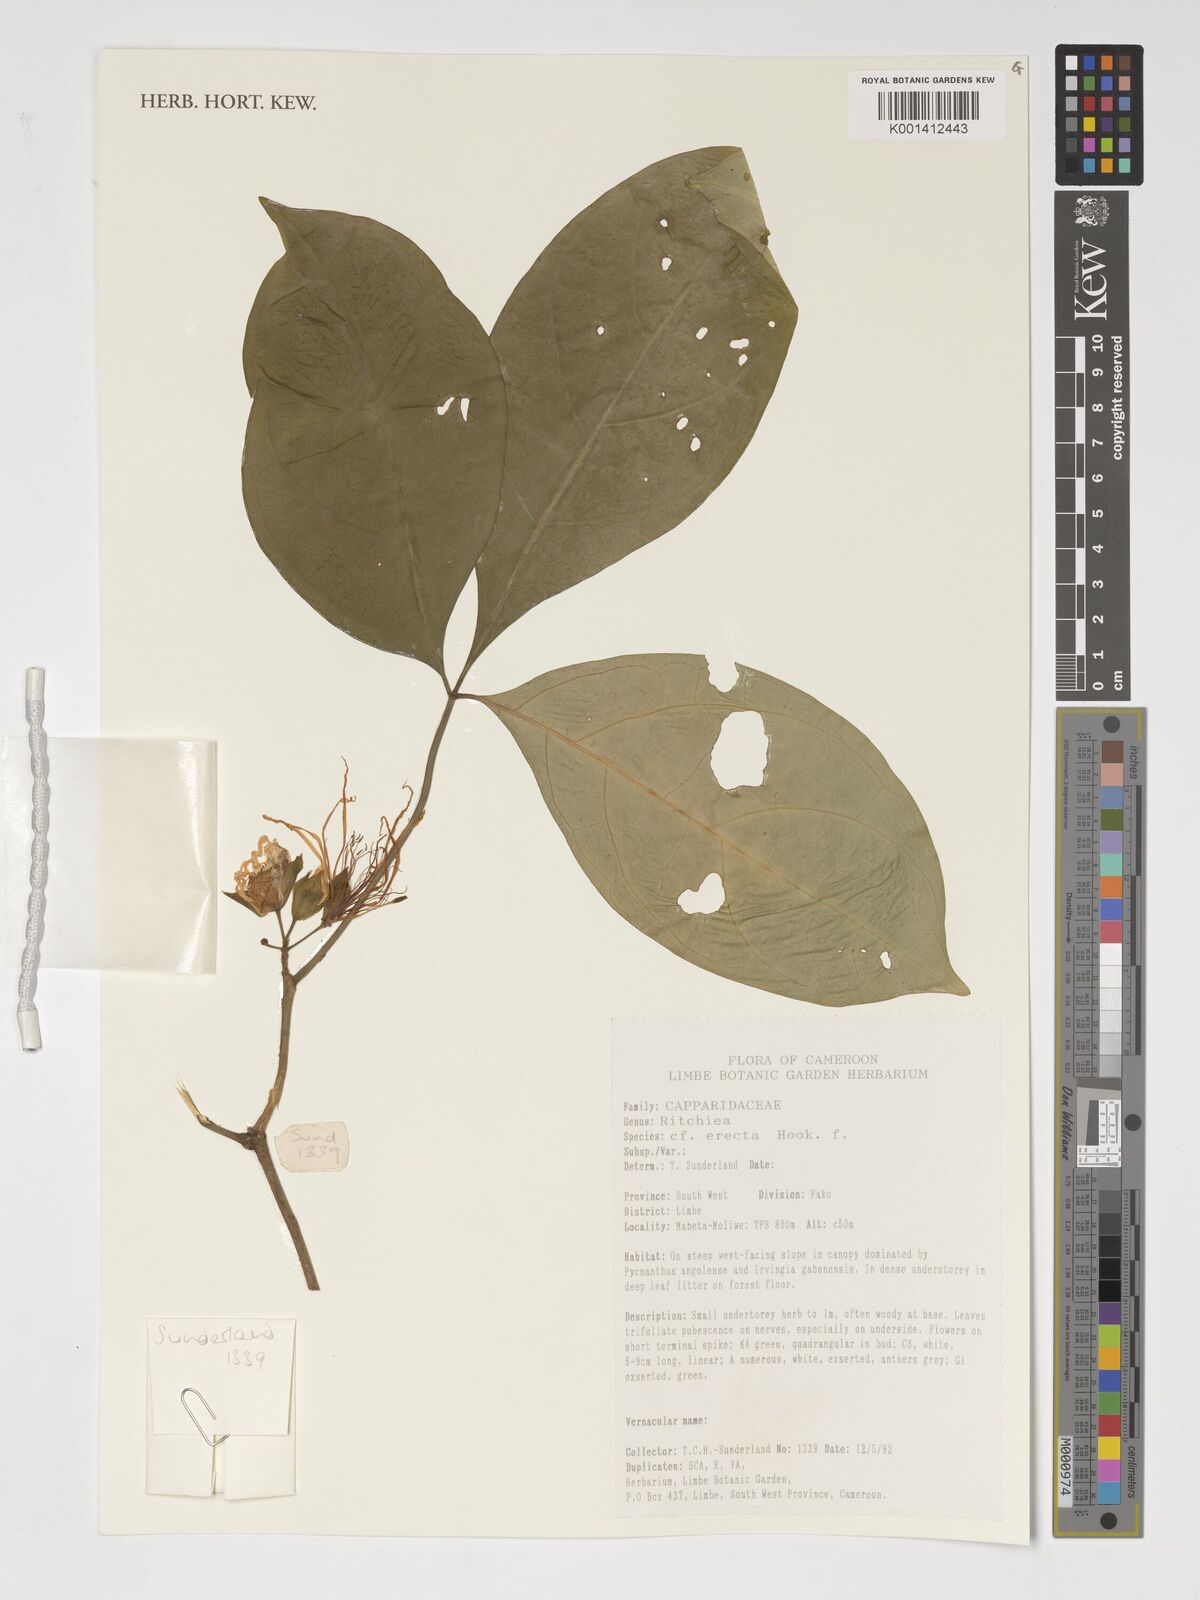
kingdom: Plantae
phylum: Tracheophyta
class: Magnoliopsida
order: Brassicales
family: Capparaceae
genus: Ritchiea
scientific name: Ritchiea erecta
